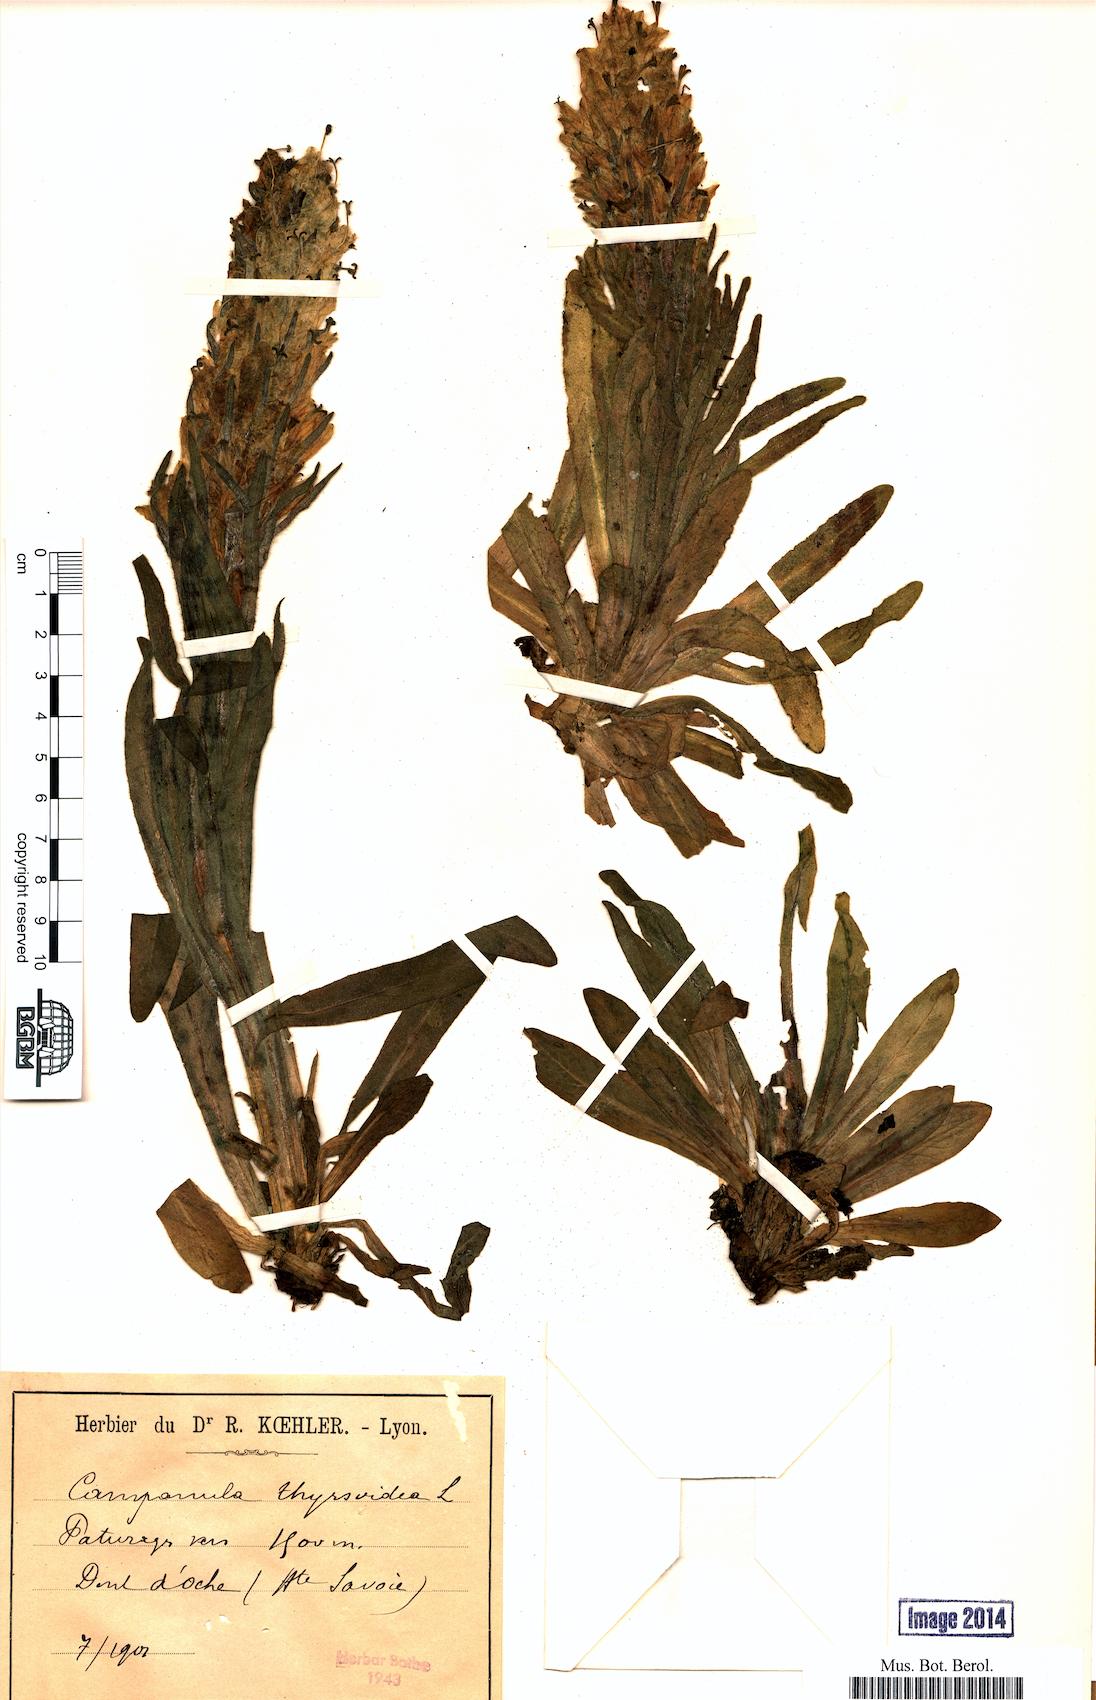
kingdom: Plantae
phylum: Tracheophyta
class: Magnoliopsida
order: Asterales
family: Campanulaceae
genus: Campanula
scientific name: Campanula thyrsoides
